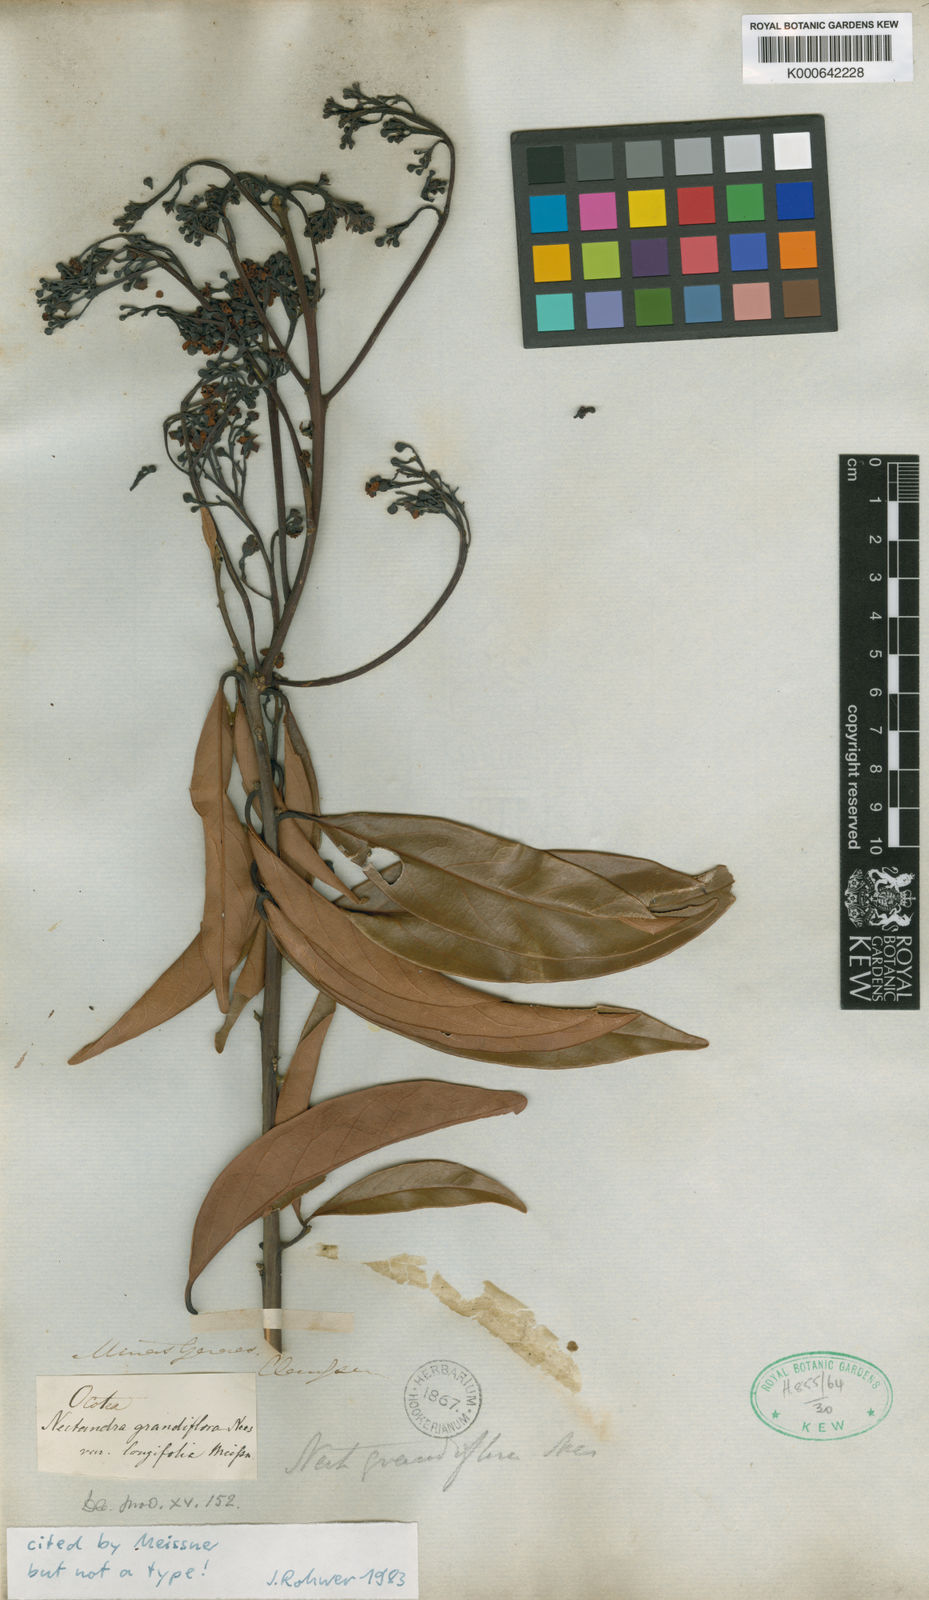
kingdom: Plantae
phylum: Tracheophyta
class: Magnoliopsida
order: Laurales
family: Lauraceae
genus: Nectandra
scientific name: Nectandra grandiflora
